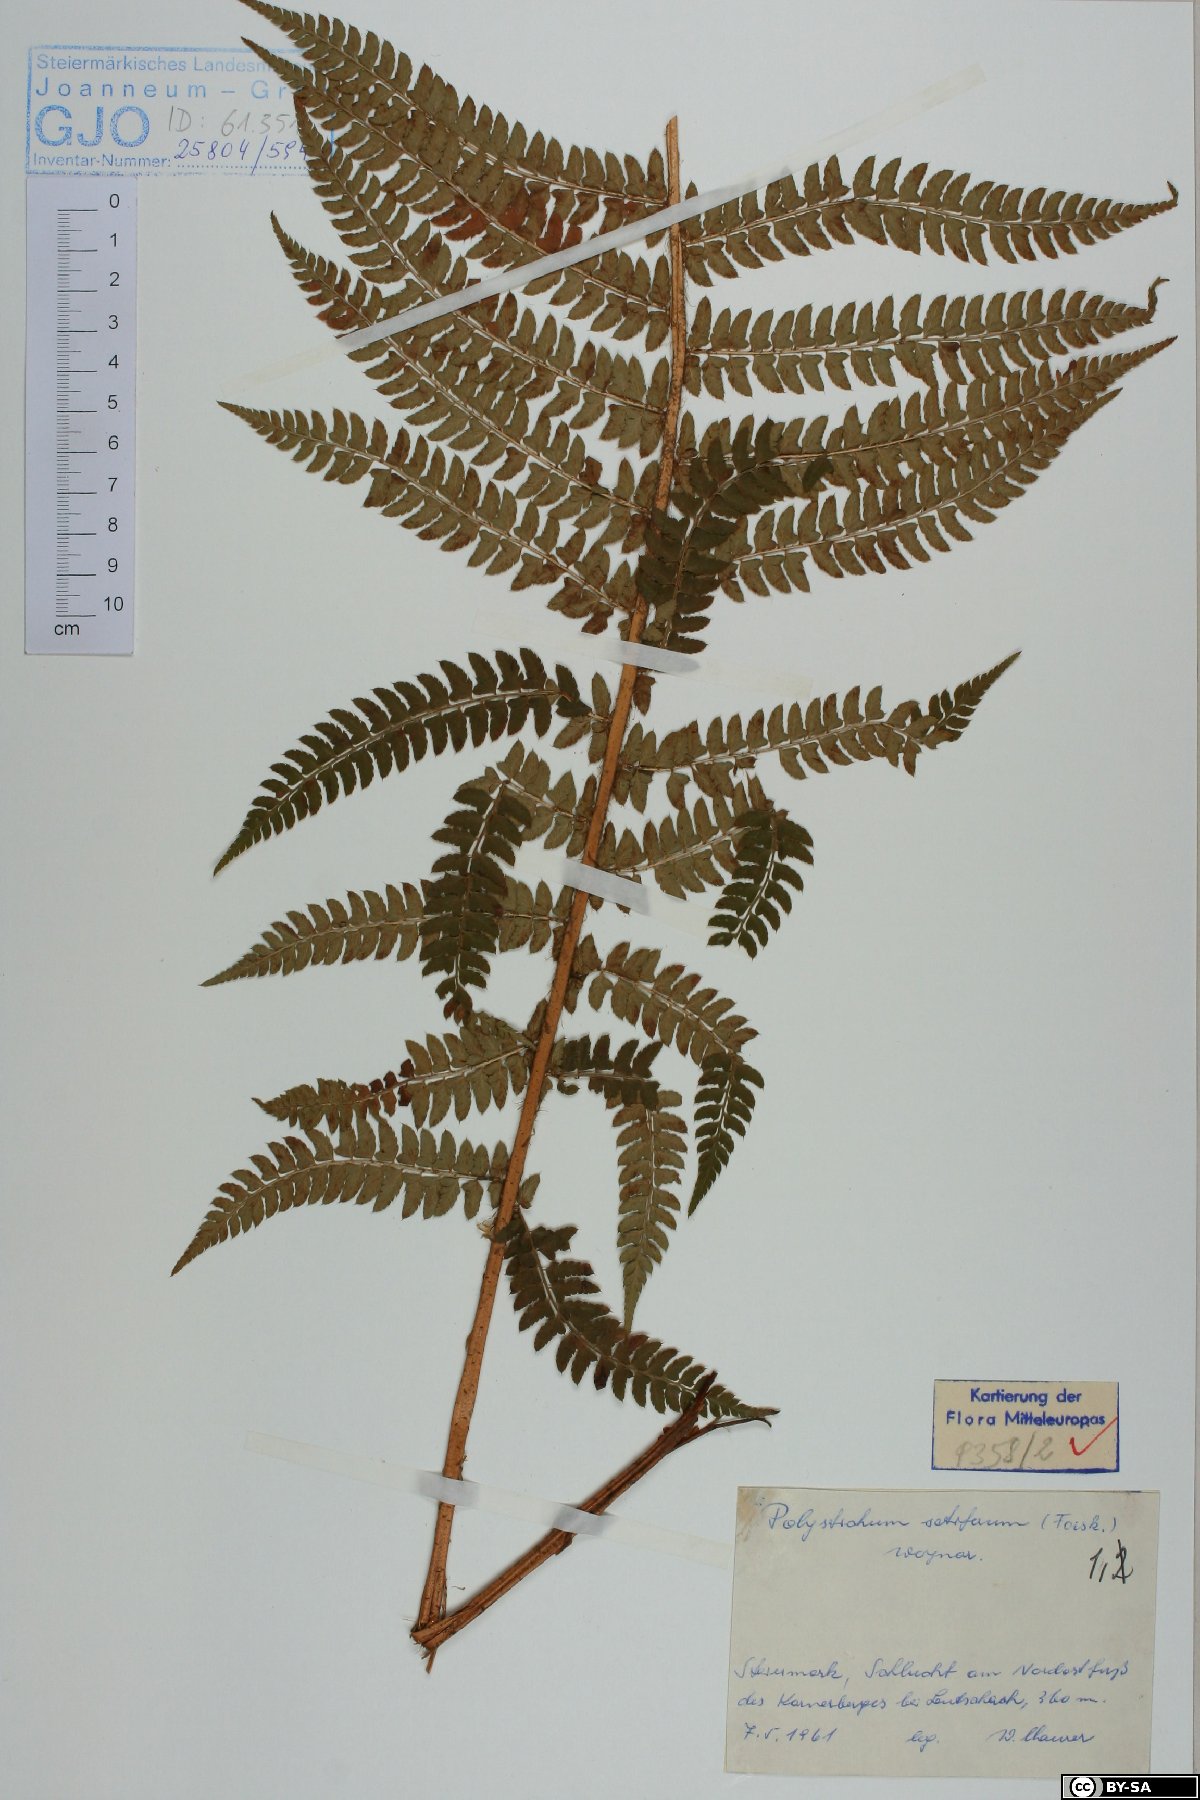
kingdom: Plantae
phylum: Tracheophyta
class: Polypodiopsida
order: Polypodiales
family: Dryopteridaceae
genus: Polystichum
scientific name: Polystichum setiferum
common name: Soft shield-fern
